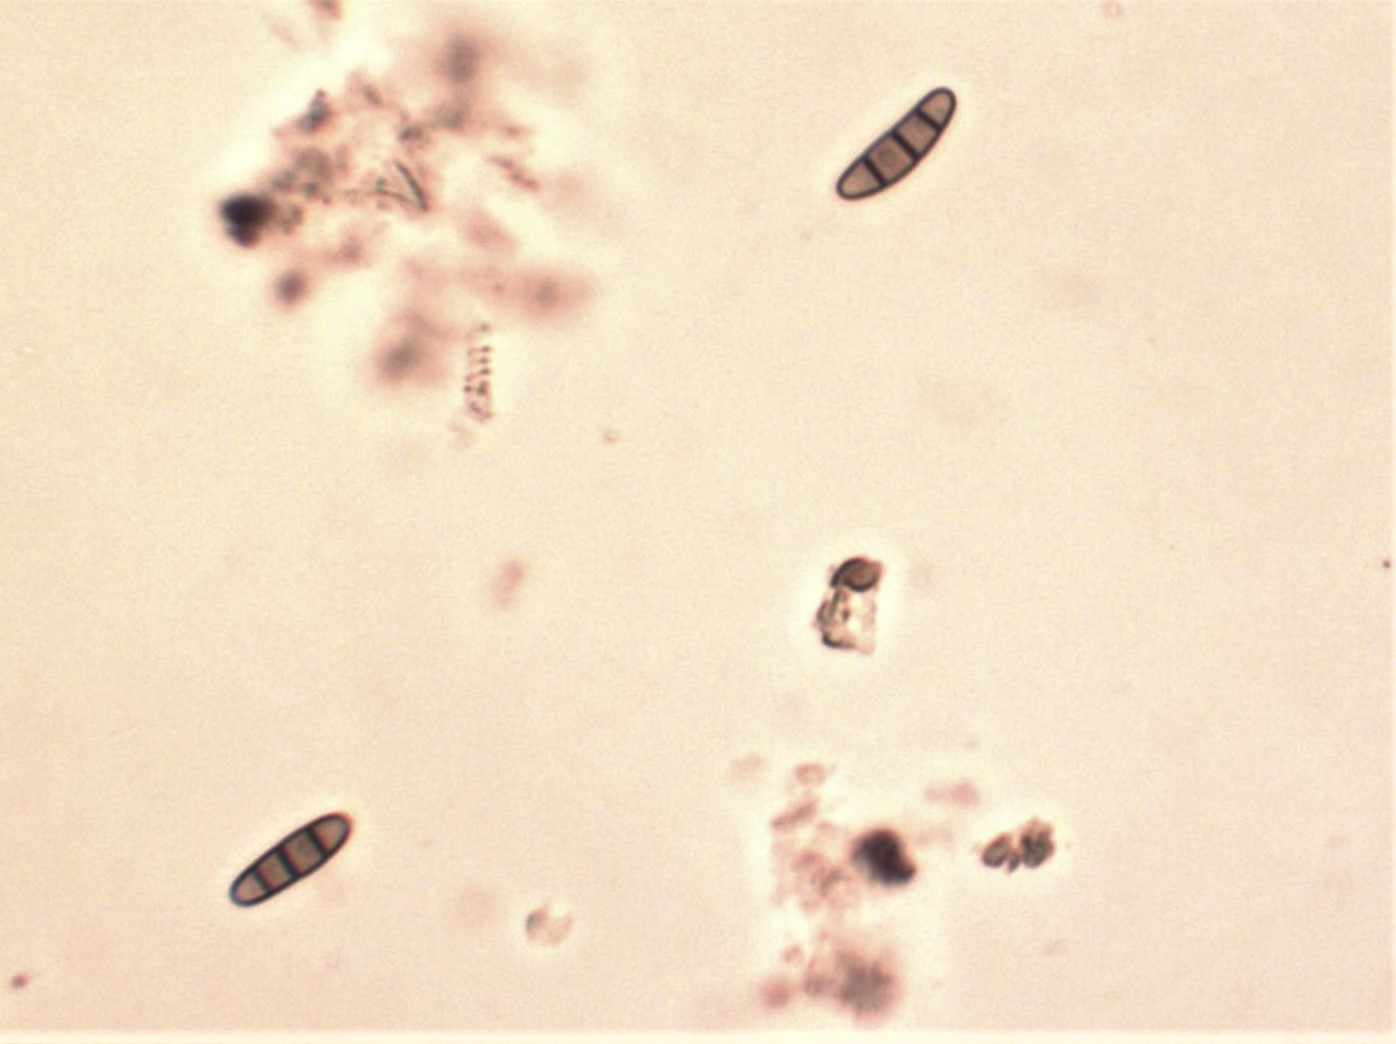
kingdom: Fungi
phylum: Ascomycota
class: Dothideomycetes
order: Hysteriales
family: Hysteriaceae
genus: Hysterium
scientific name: Hysterium acuminatum
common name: almindelig kulmund
